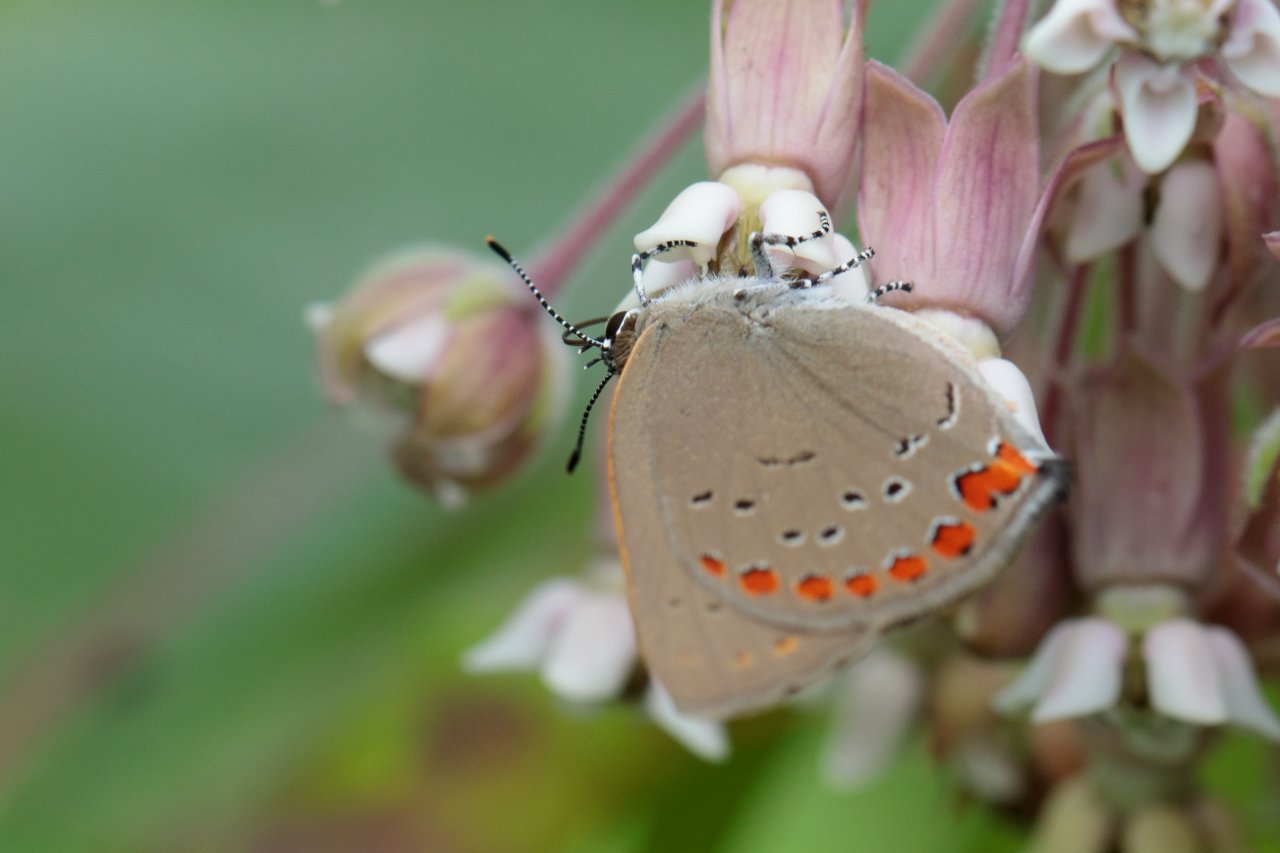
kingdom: Animalia
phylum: Arthropoda
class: Insecta
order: Lepidoptera
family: Lycaenidae
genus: Harkenclenus
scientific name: Harkenclenus titus
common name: Coral Hairstreak
